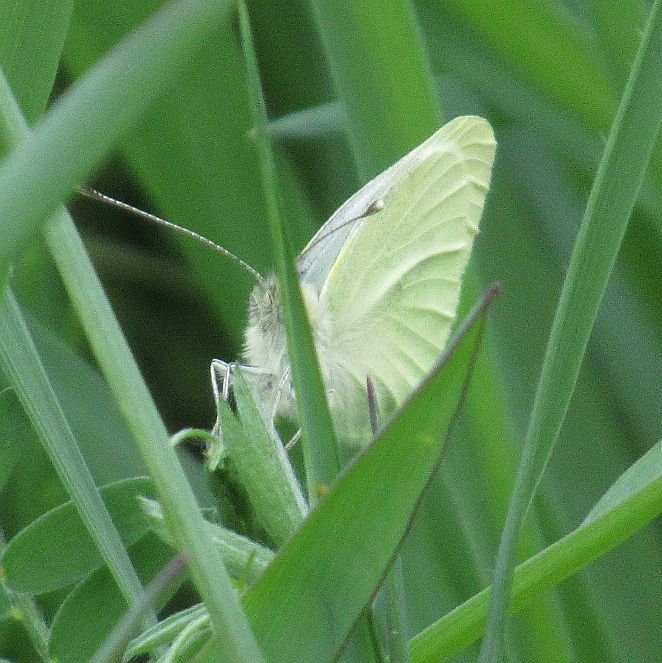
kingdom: Animalia
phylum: Arthropoda
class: Insecta
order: Lepidoptera
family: Pieridae
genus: Pieris
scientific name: Pieris oleracea
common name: Mustard White
